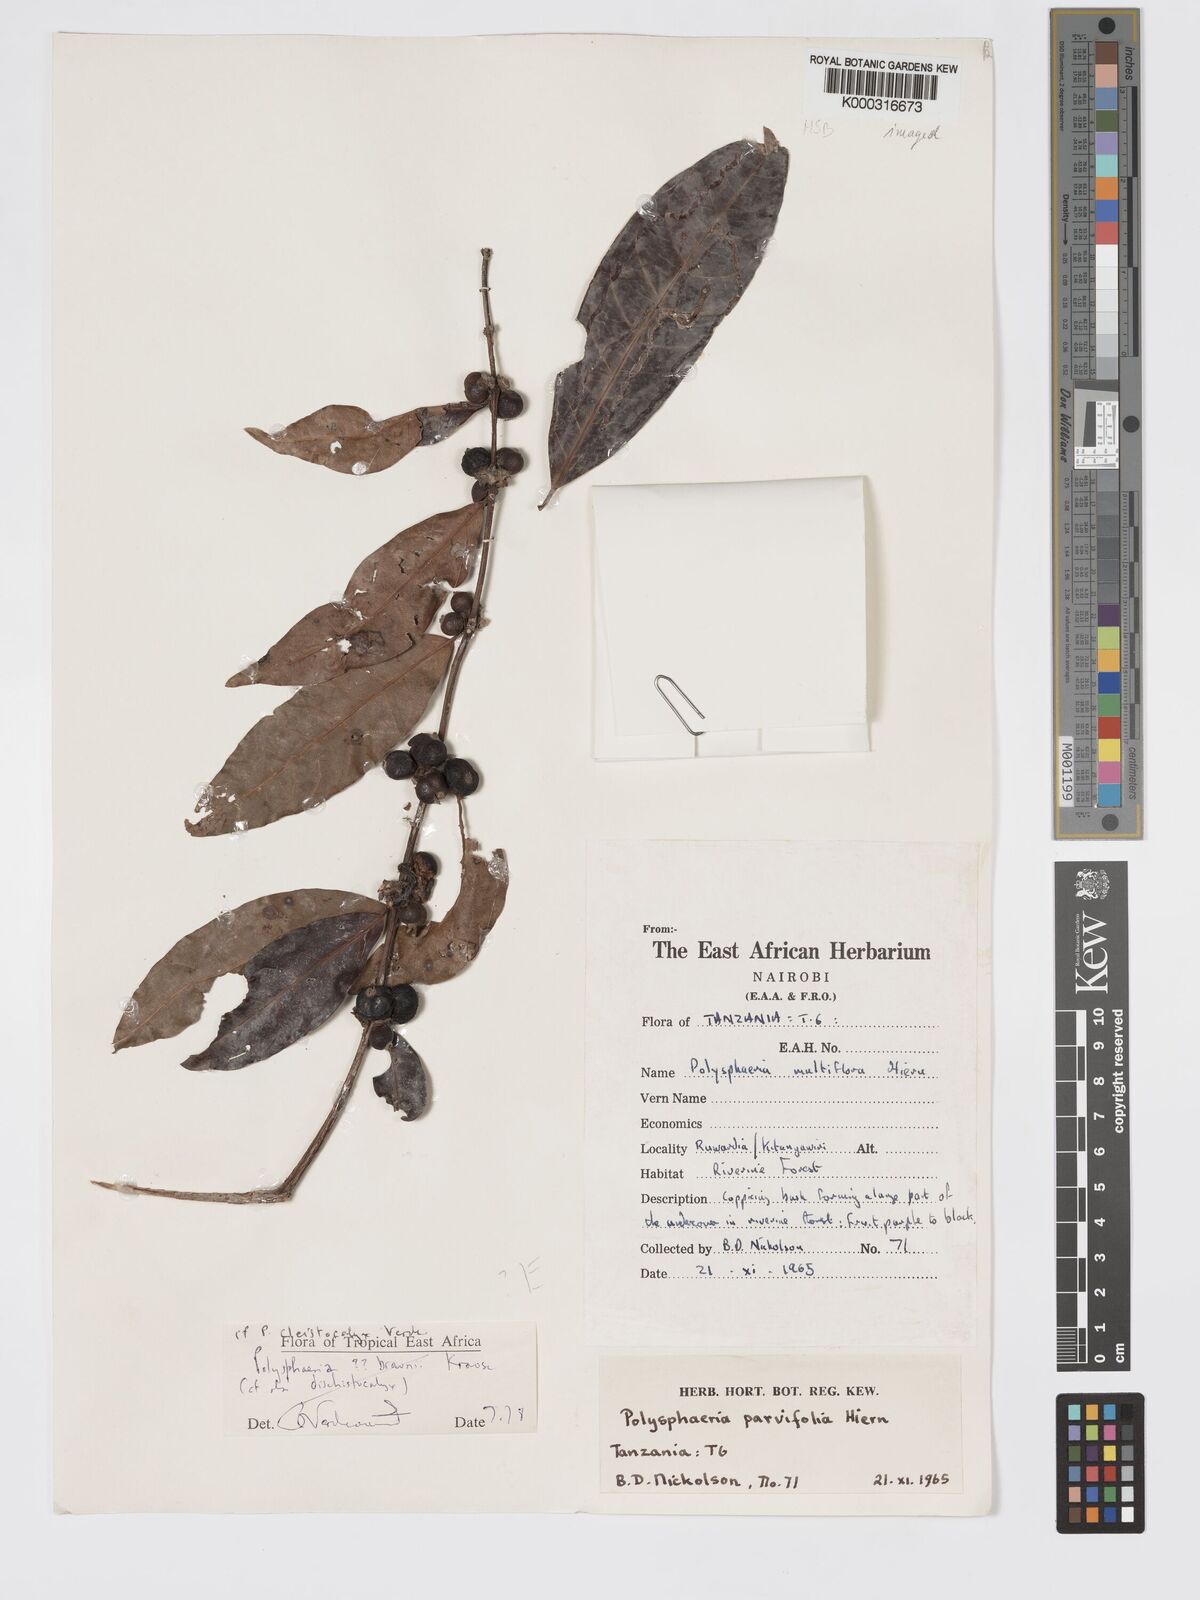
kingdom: Plantae
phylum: Tracheophyta
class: Magnoliopsida
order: Gentianales
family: Rubiaceae
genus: Polysphaeria
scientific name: Polysphaeria cleistocalyx
